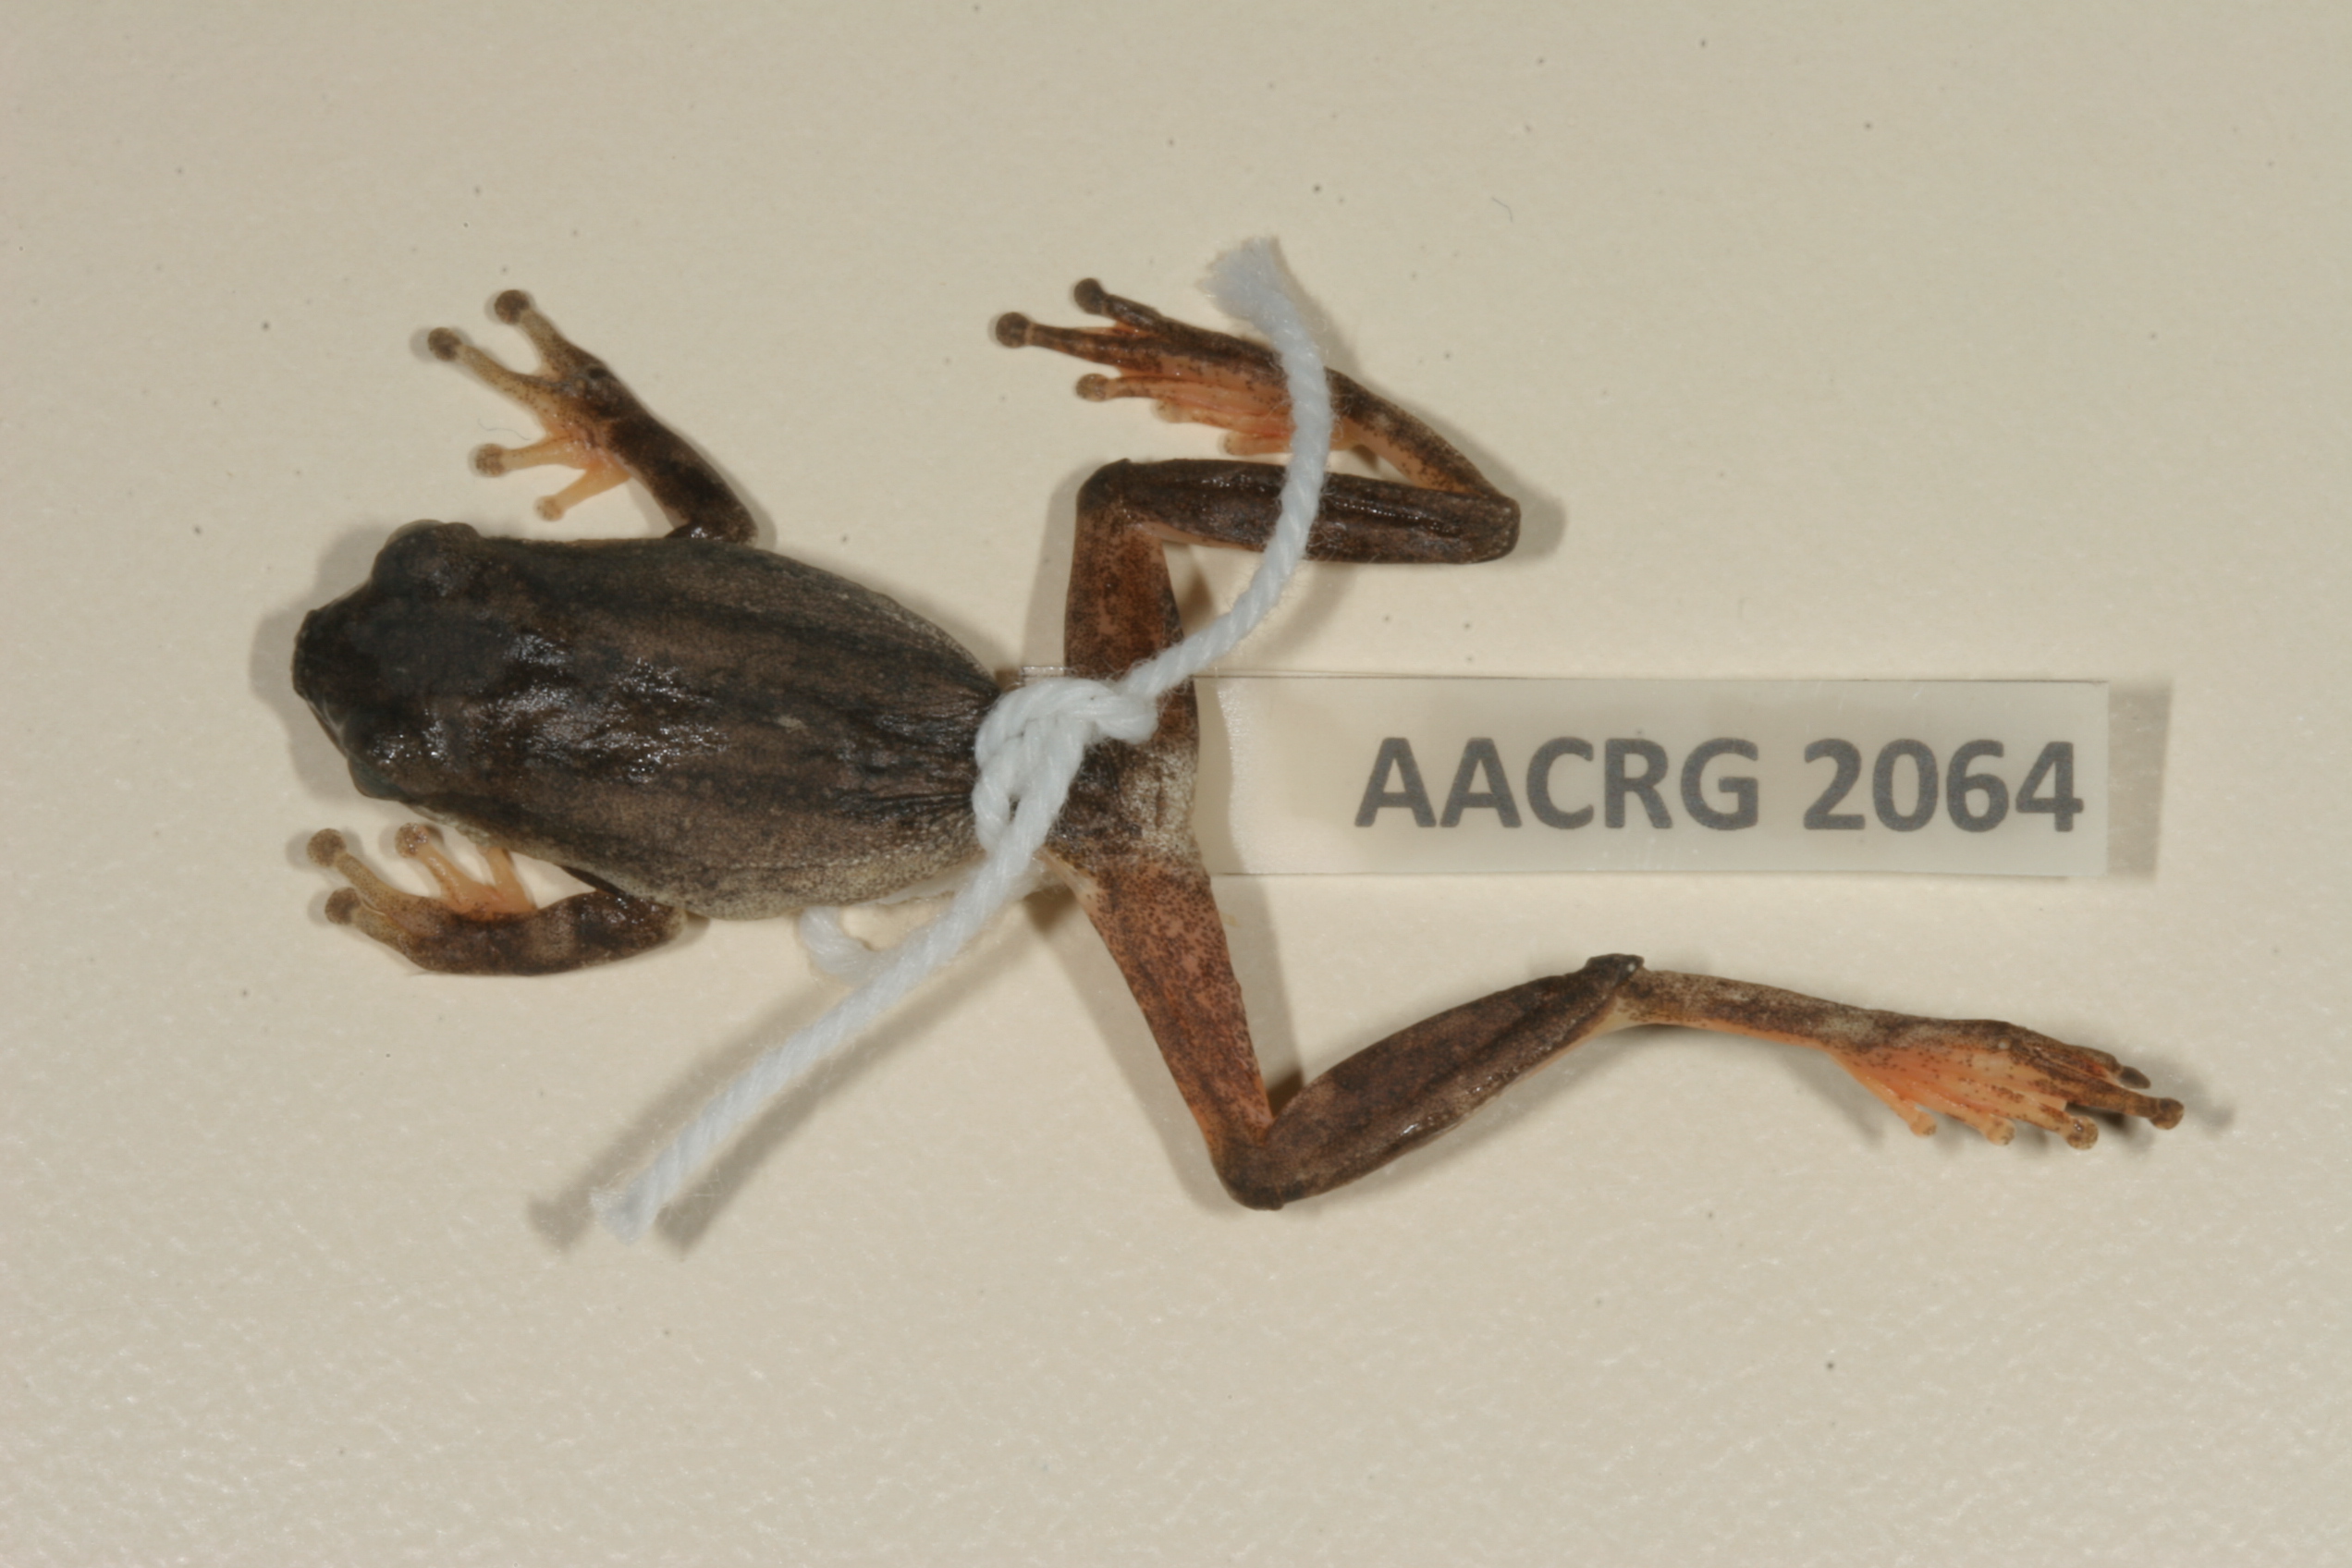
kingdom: Animalia
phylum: Chordata
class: Amphibia
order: Anura
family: Hyperoliidae
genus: Hyperolius
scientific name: Hyperolius marmoratus
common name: Painted reed frog
